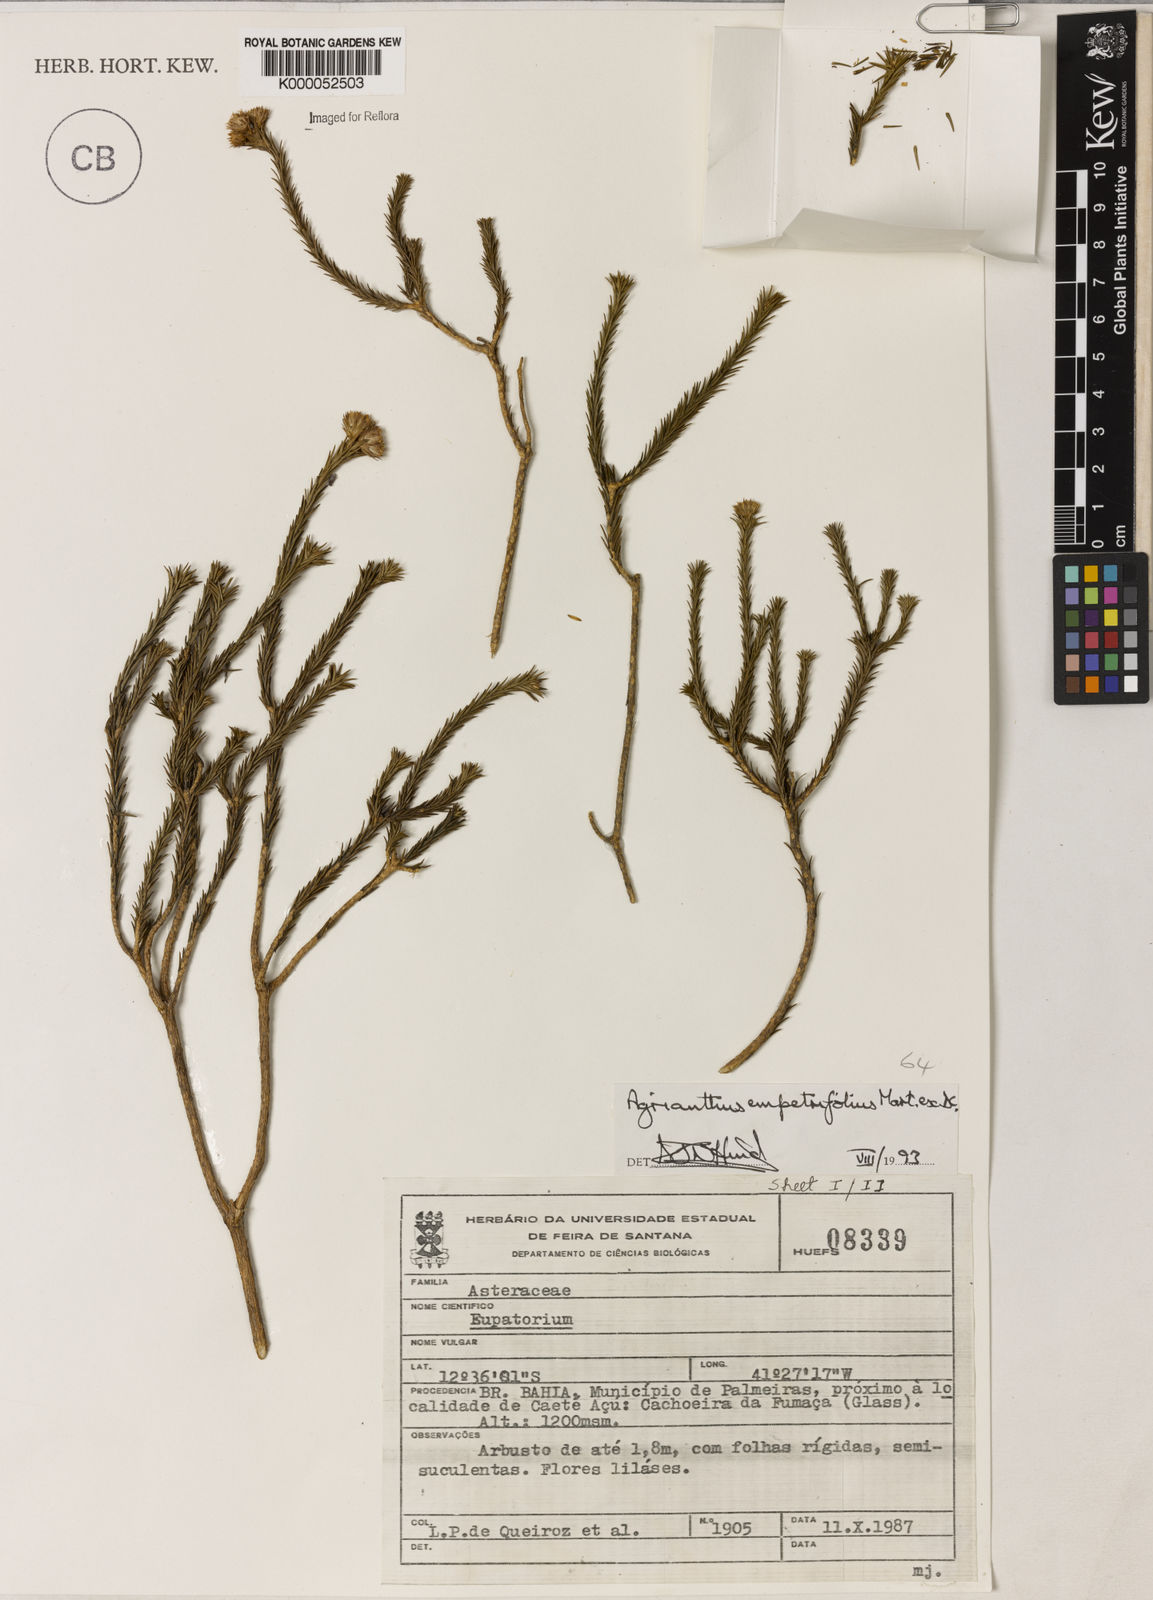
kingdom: Plantae
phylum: Tracheophyta
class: Magnoliopsida
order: Asterales
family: Asteraceae
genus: Agrianthus
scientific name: Agrianthus
